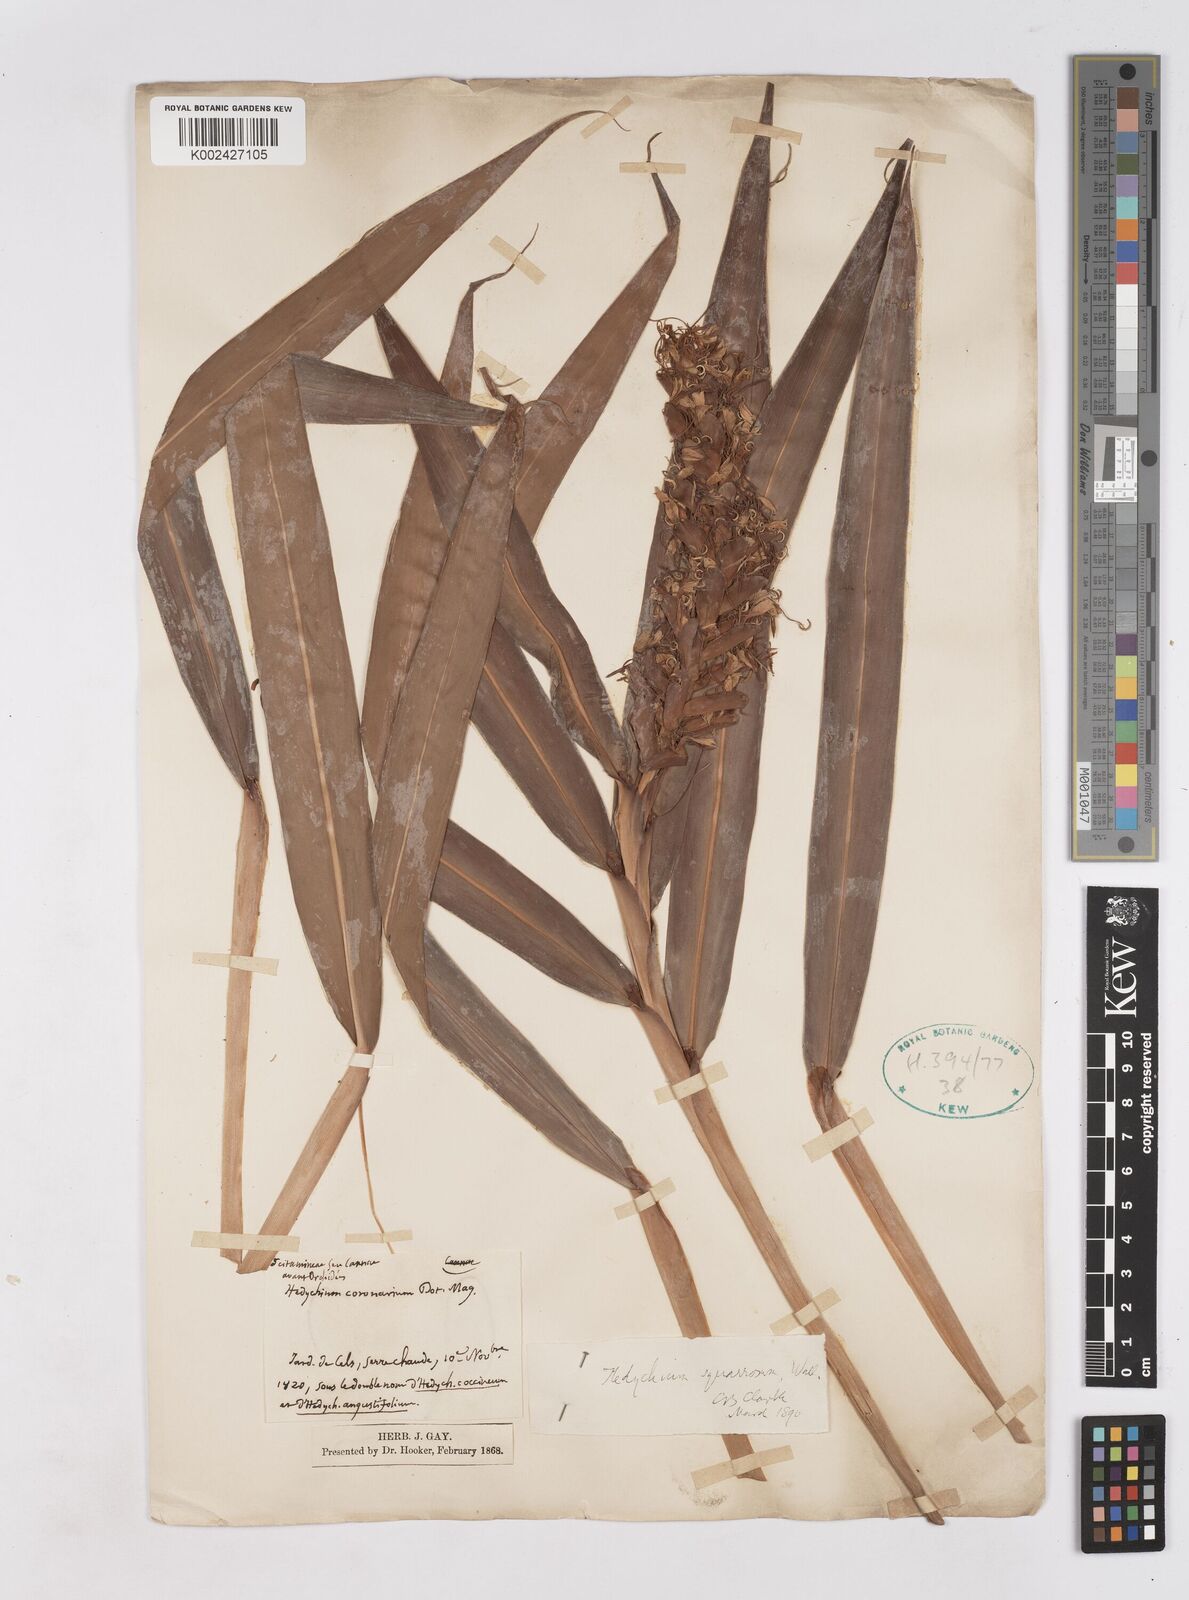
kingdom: Plantae
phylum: Tracheophyta
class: Liliopsida
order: Zingiberales
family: Zingiberaceae
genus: Hedychium
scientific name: Hedychium coccineum
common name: Red ginger-lily
